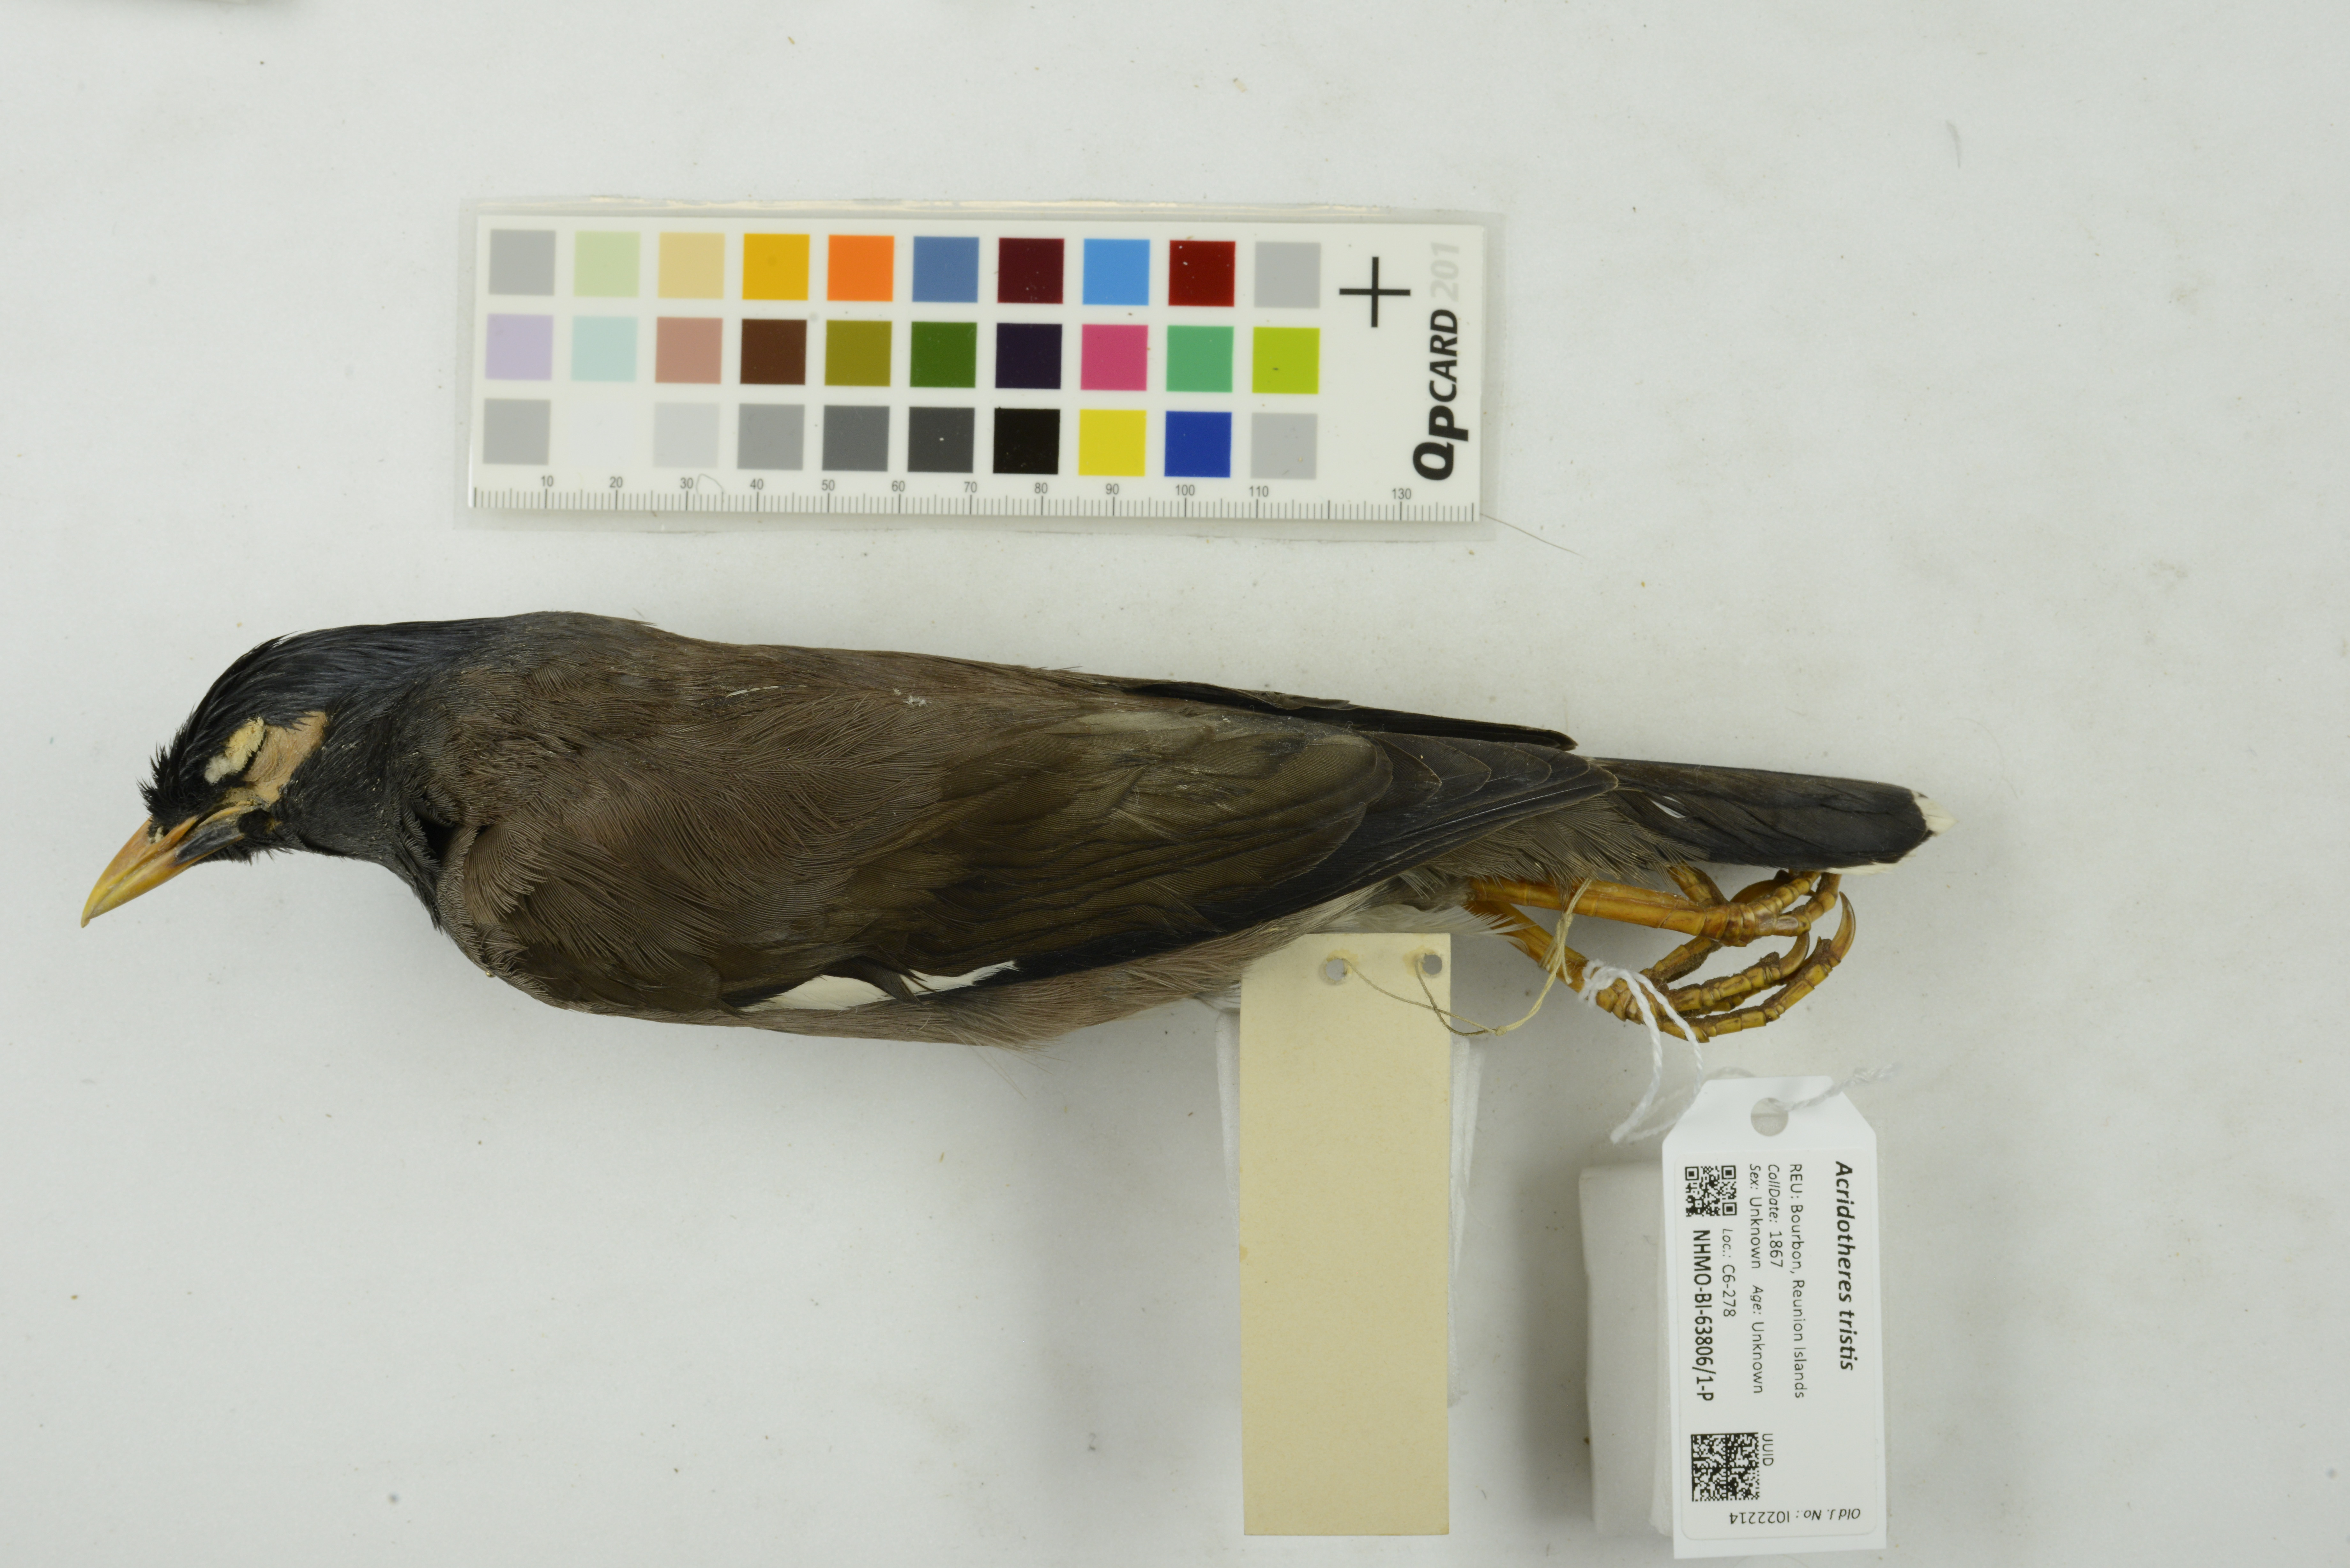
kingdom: Animalia
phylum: Chordata
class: Aves
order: Passeriformes
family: Sturnidae
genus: Acridotheres
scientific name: Acridotheres tristis
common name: Common myna
